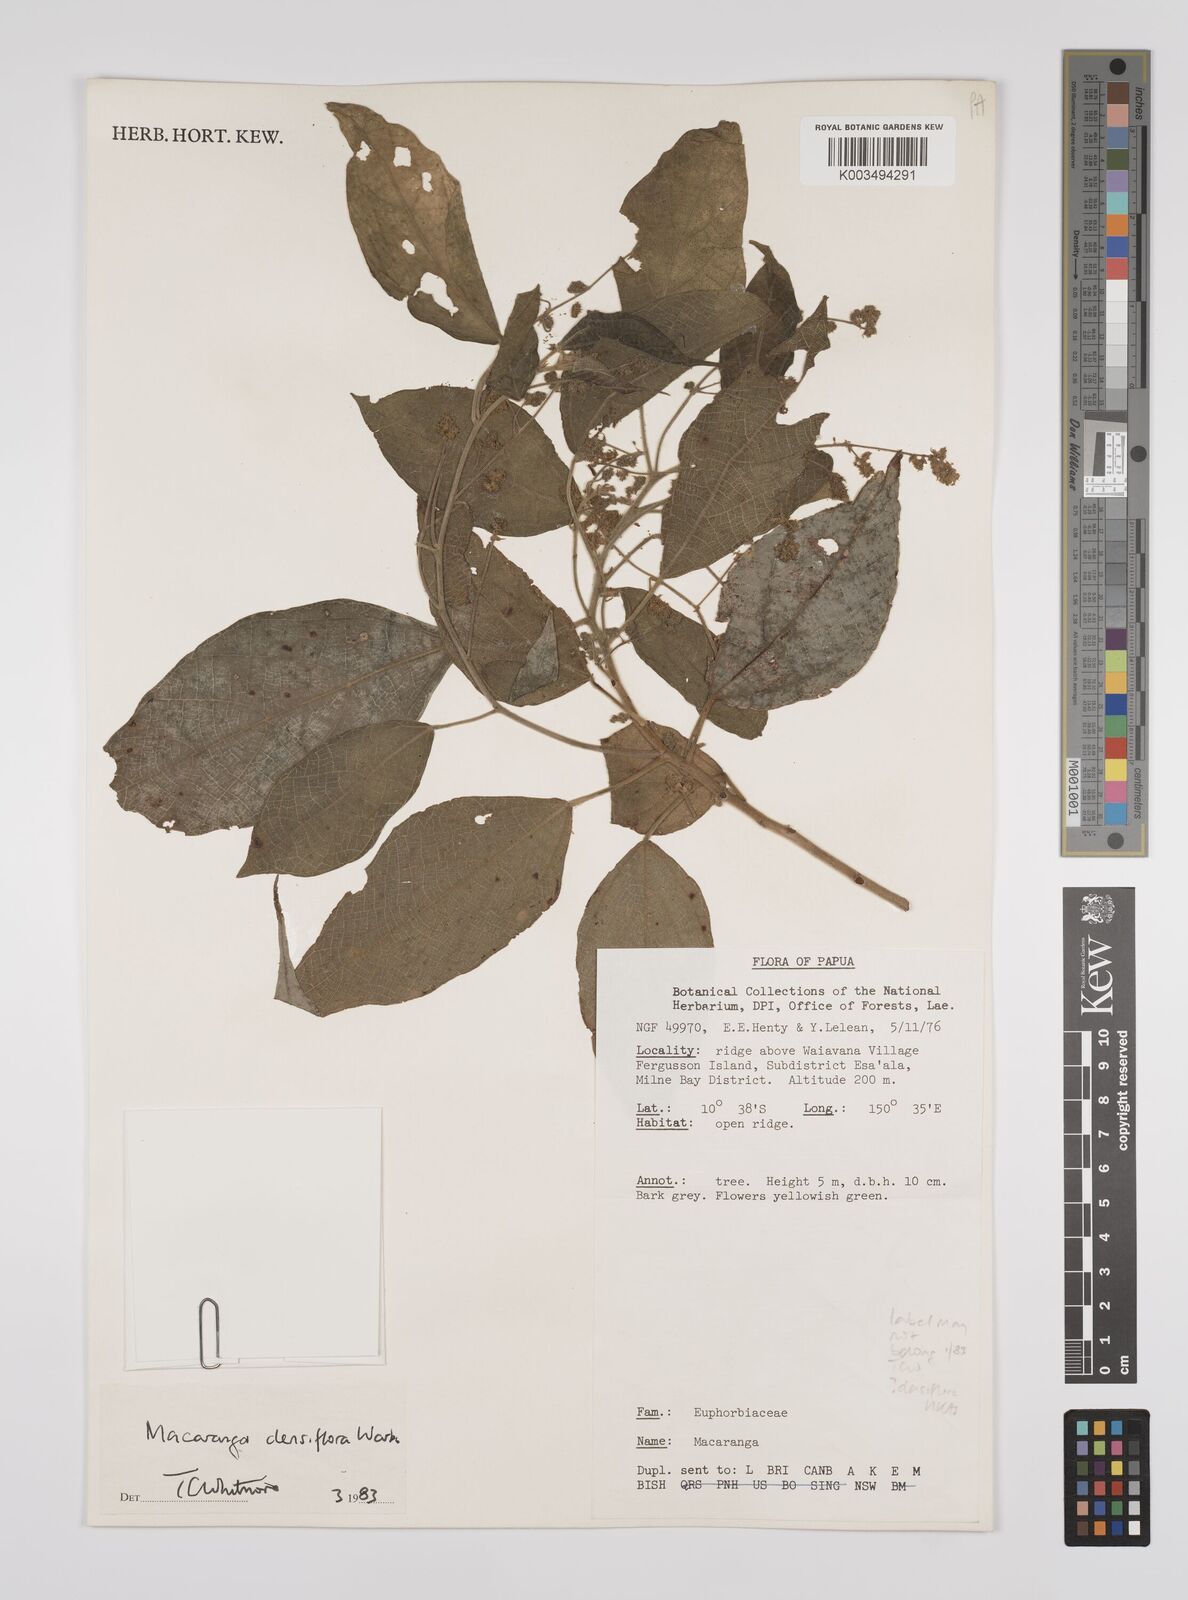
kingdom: Plantae
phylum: Tracheophyta
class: Magnoliopsida
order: Malpighiales
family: Euphorbiaceae
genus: Macaranga
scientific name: Macaranga densiflora
